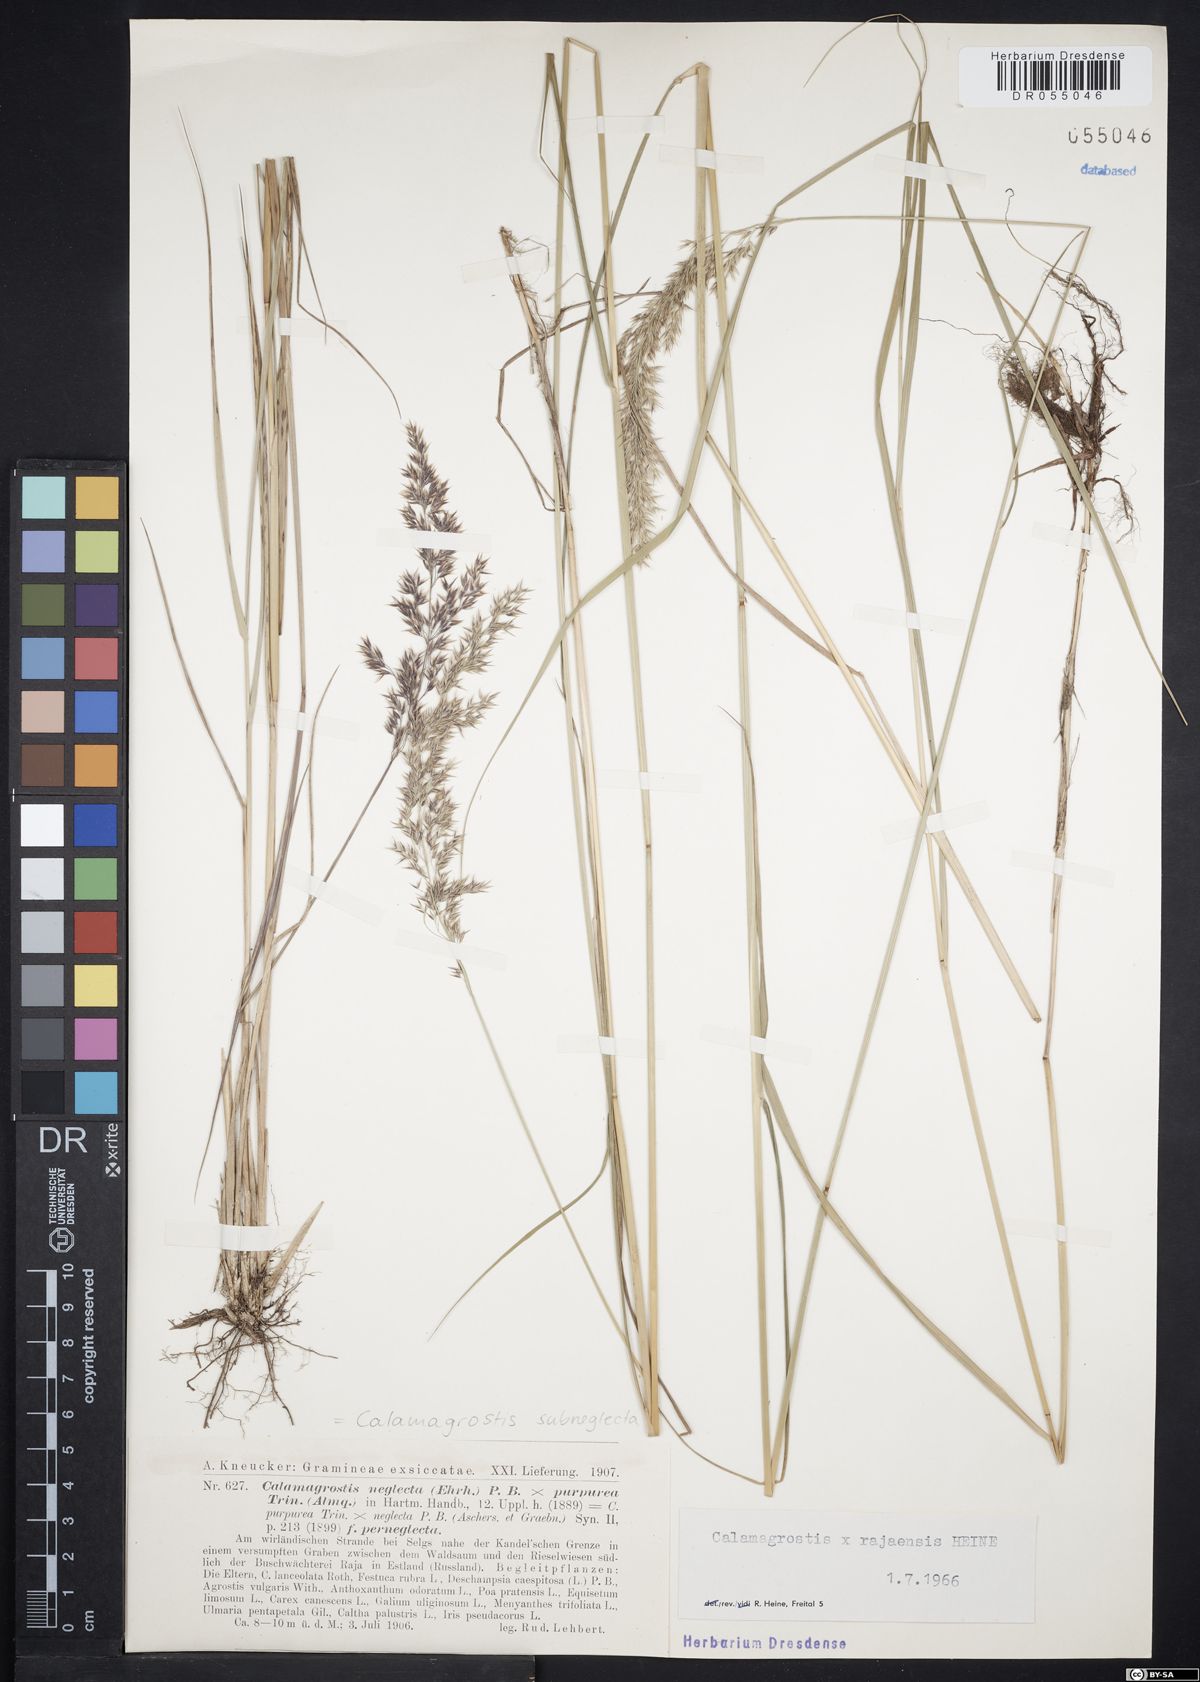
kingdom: Plantae
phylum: Tracheophyta
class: Liliopsida
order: Poales
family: Poaceae
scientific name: Poaceae
